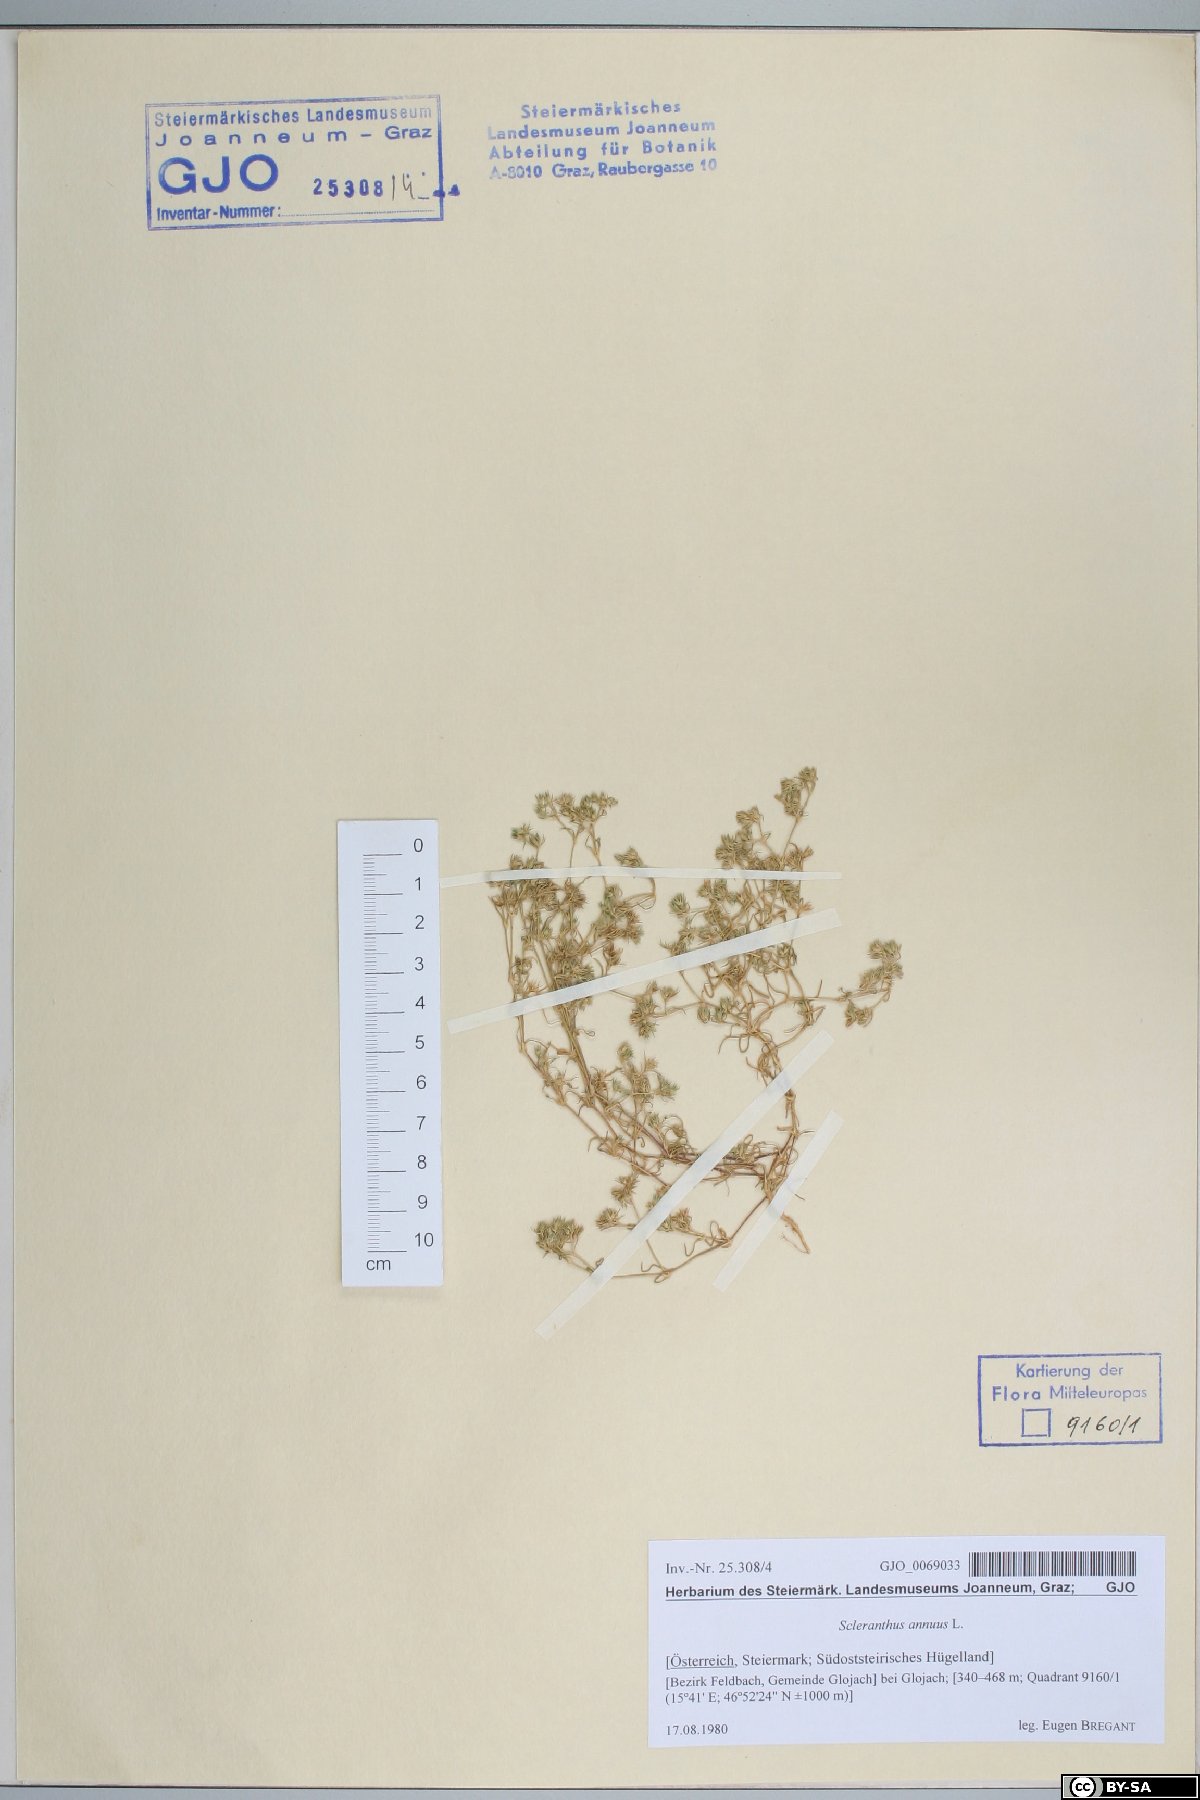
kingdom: Plantae
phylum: Tracheophyta
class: Magnoliopsida
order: Caryophyllales
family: Caryophyllaceae
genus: Scleranthus
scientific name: Scleranthus annuus
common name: Annual knawel
